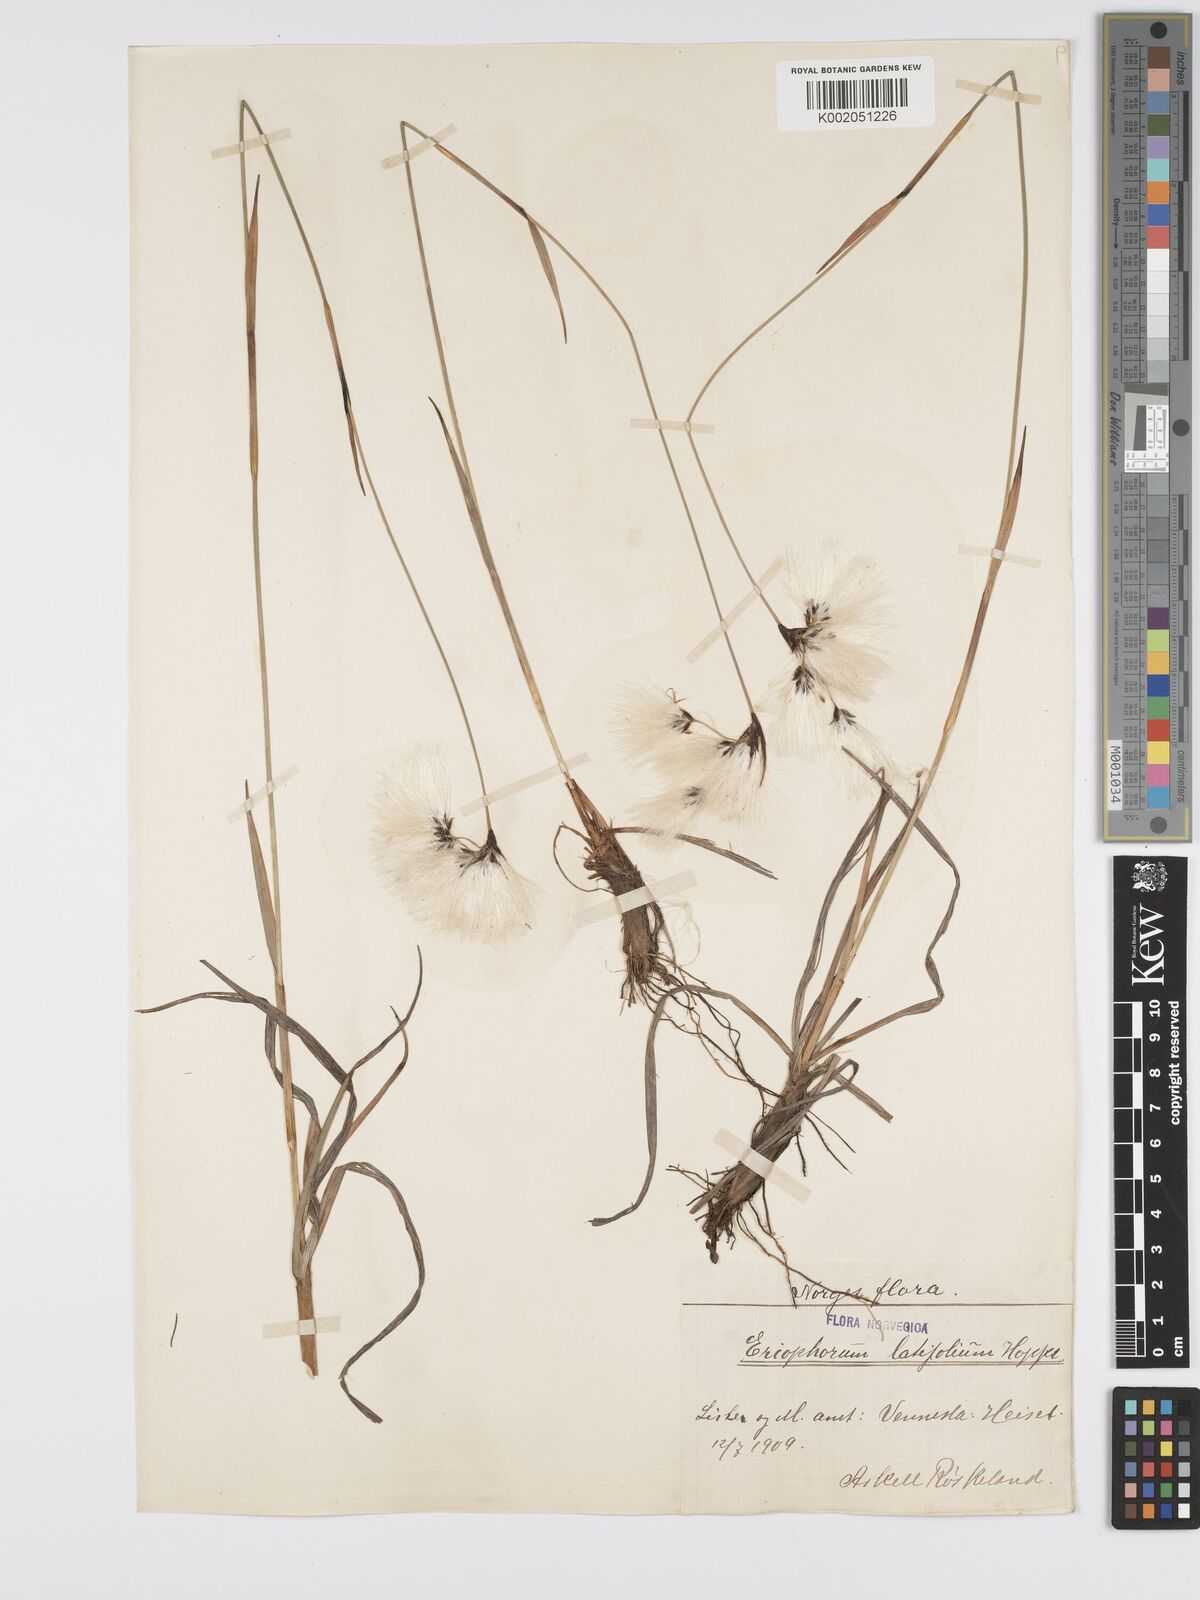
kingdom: Plantae
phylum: Tracheophyta
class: Liliopsida
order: Poales
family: Cyperaceae
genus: Eriophorum
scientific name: Eriophorum latifolium
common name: Broad-leaved cottongrass
